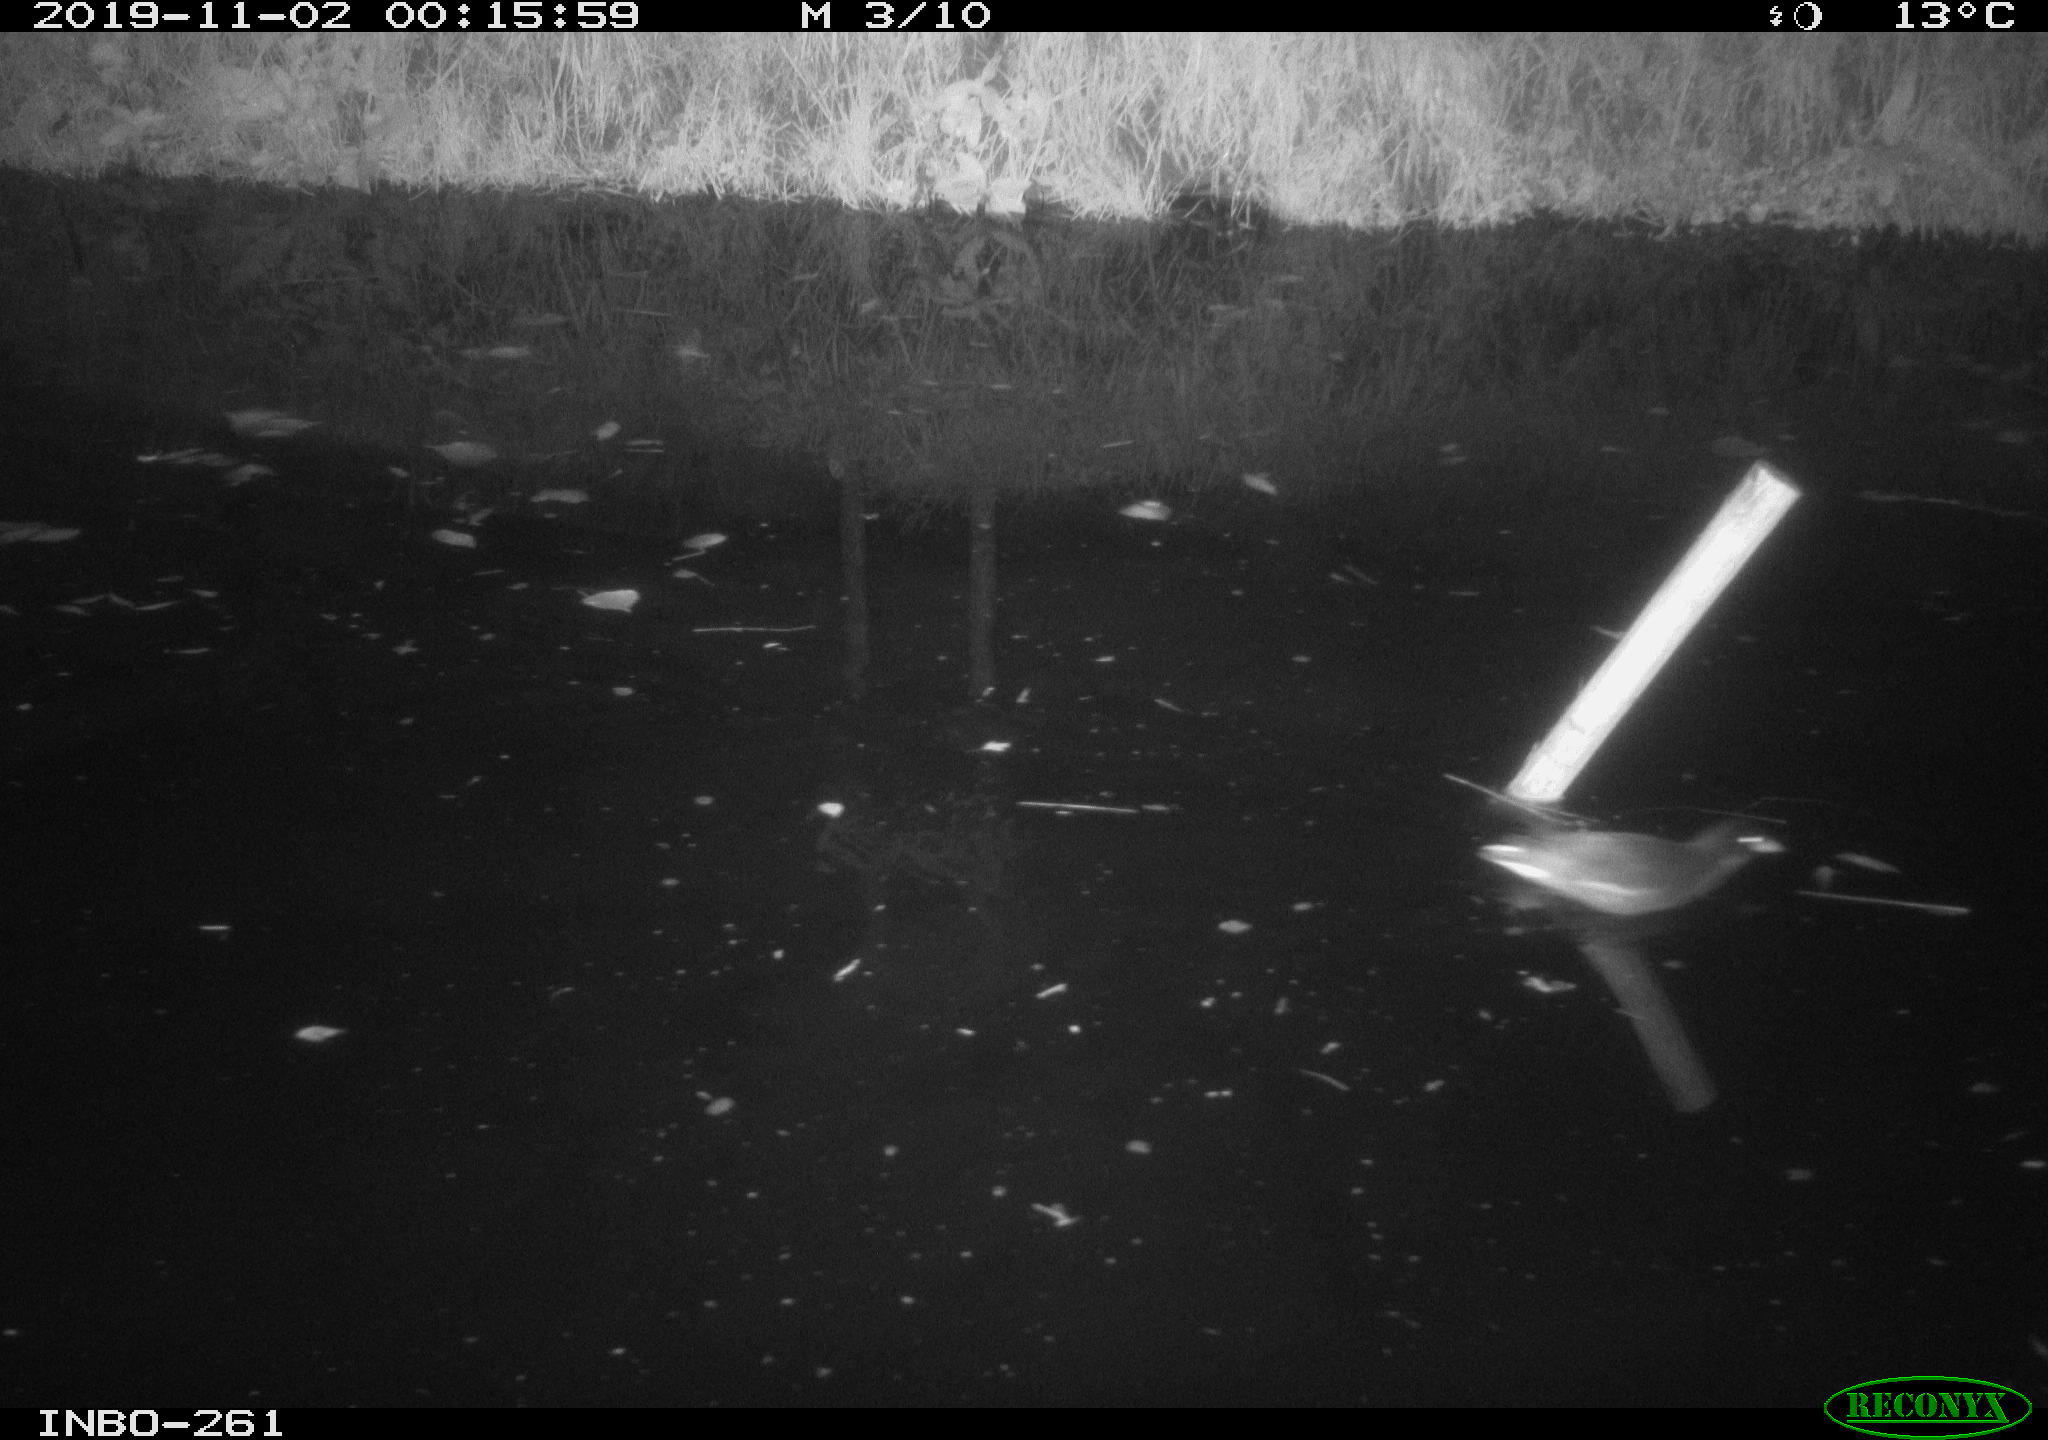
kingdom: Animalia
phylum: Chordata
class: Aves
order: Gruiformes
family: Rallidae
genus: Gallinula
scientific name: Gallinula chloropus
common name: Common moorhen
